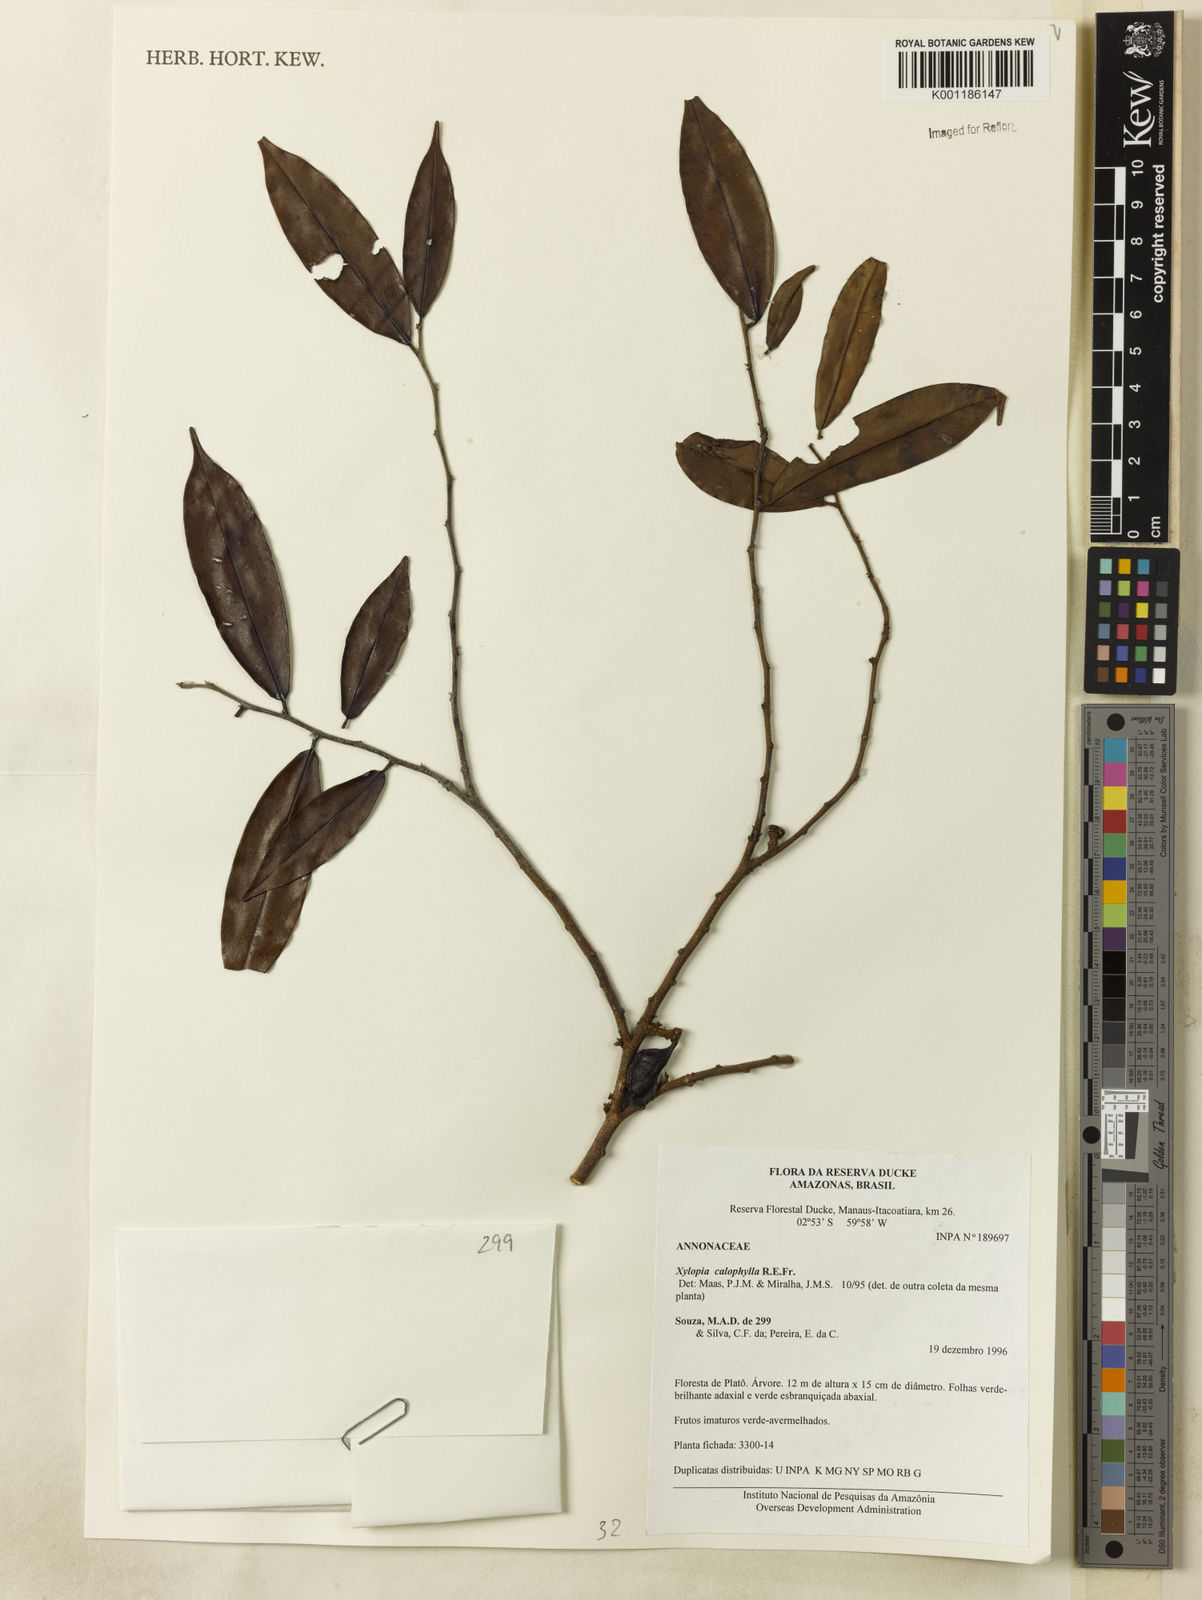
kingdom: Plantae
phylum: Tracheophyta
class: Magnoliopsida
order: Magnoliales
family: Annonaceae
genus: Xylopia
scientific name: Xylopia calophylla
